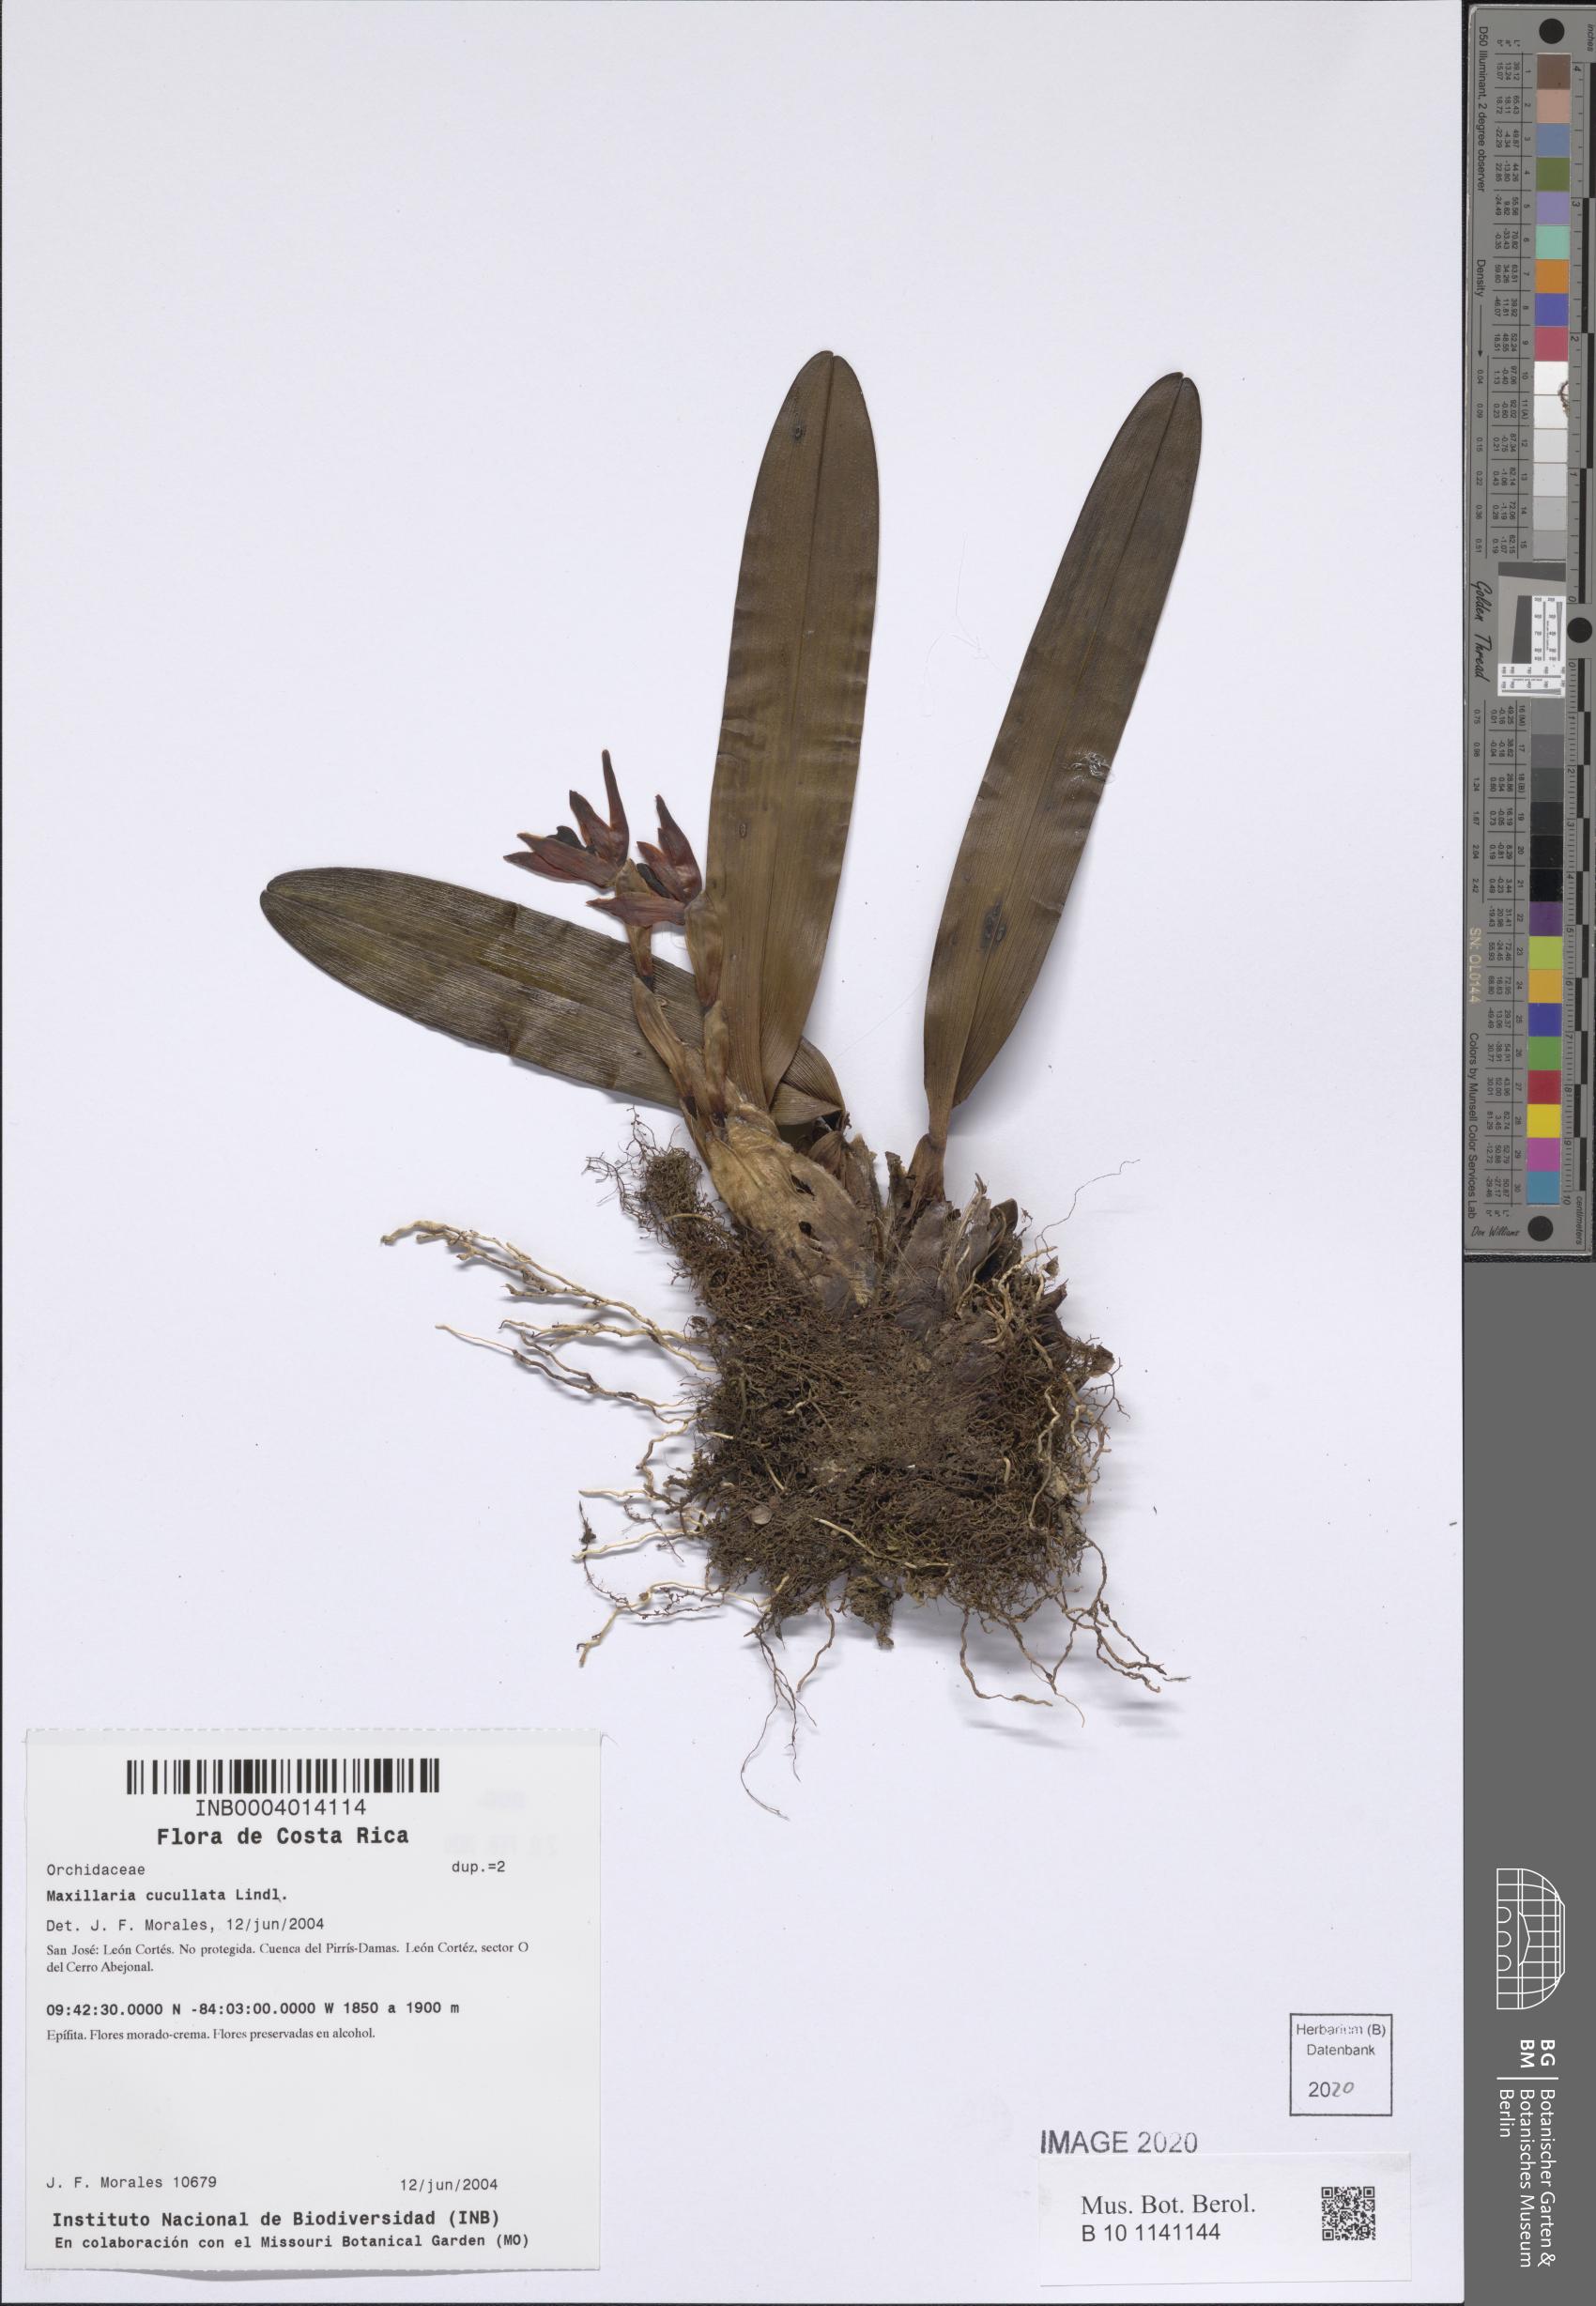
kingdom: Plantae
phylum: Tracheophyta
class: Liliopsida
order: Asparagales
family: Orchidaceae
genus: Maxillaria
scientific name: Maxillaria cucullata
